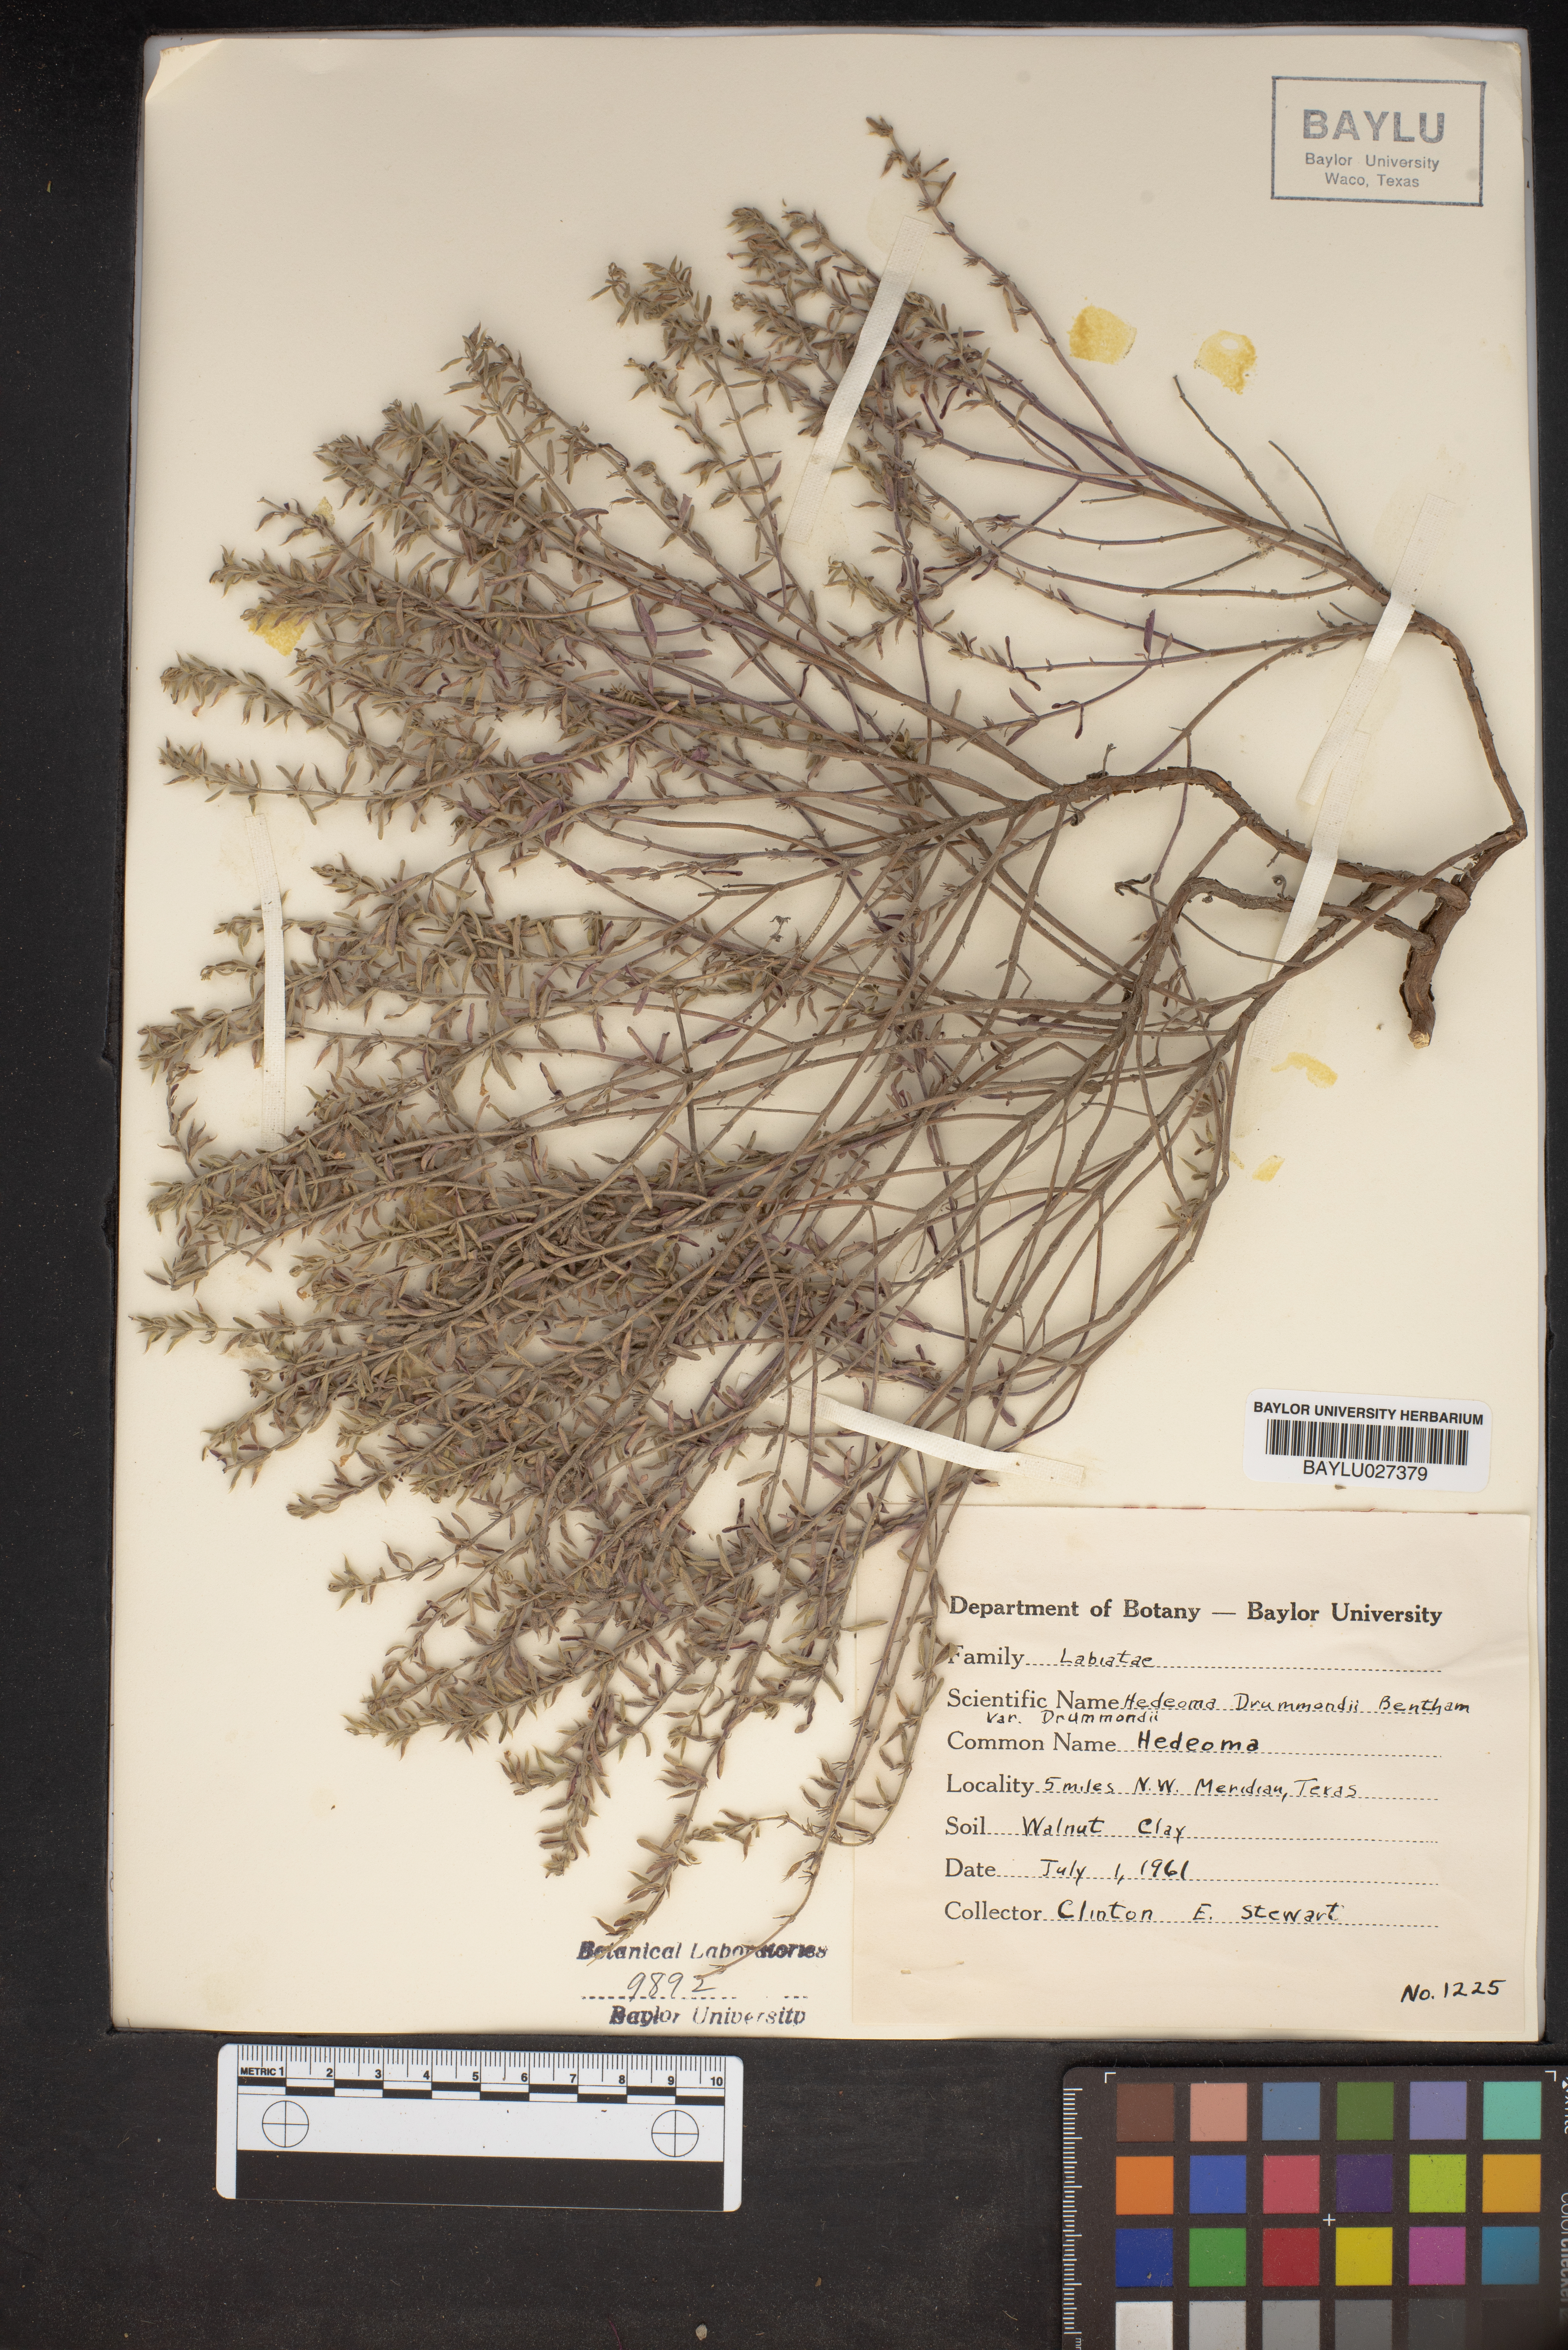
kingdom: Plantae
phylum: Tracheophyta
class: Magnoliopsida
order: Lamiales
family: Lamiaceae
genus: Hedeoma
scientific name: Hedeoma drummondii
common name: New mexico pennyroyal
